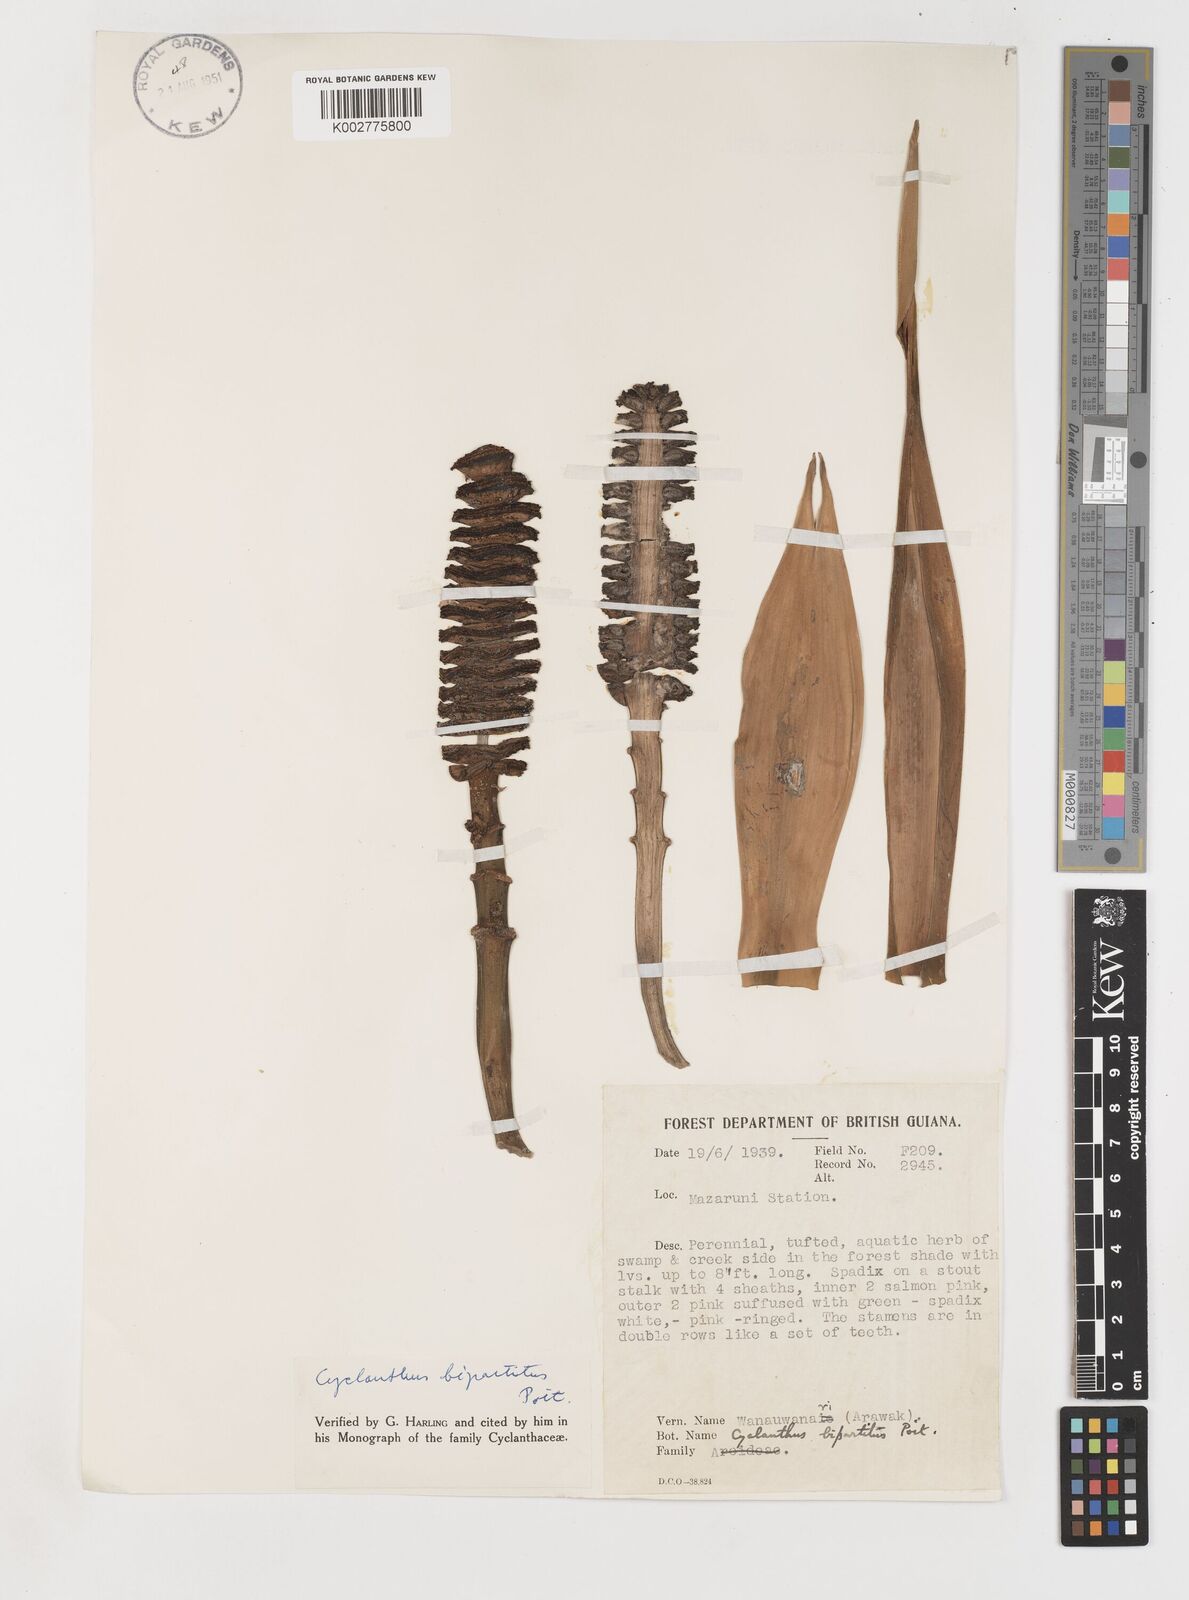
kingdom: Plantae
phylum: Tracheophyta
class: Liliopsida
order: Pandanales
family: Cyclanthaceae
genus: Cyclanthus
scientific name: Cyclanthus bipartitus
